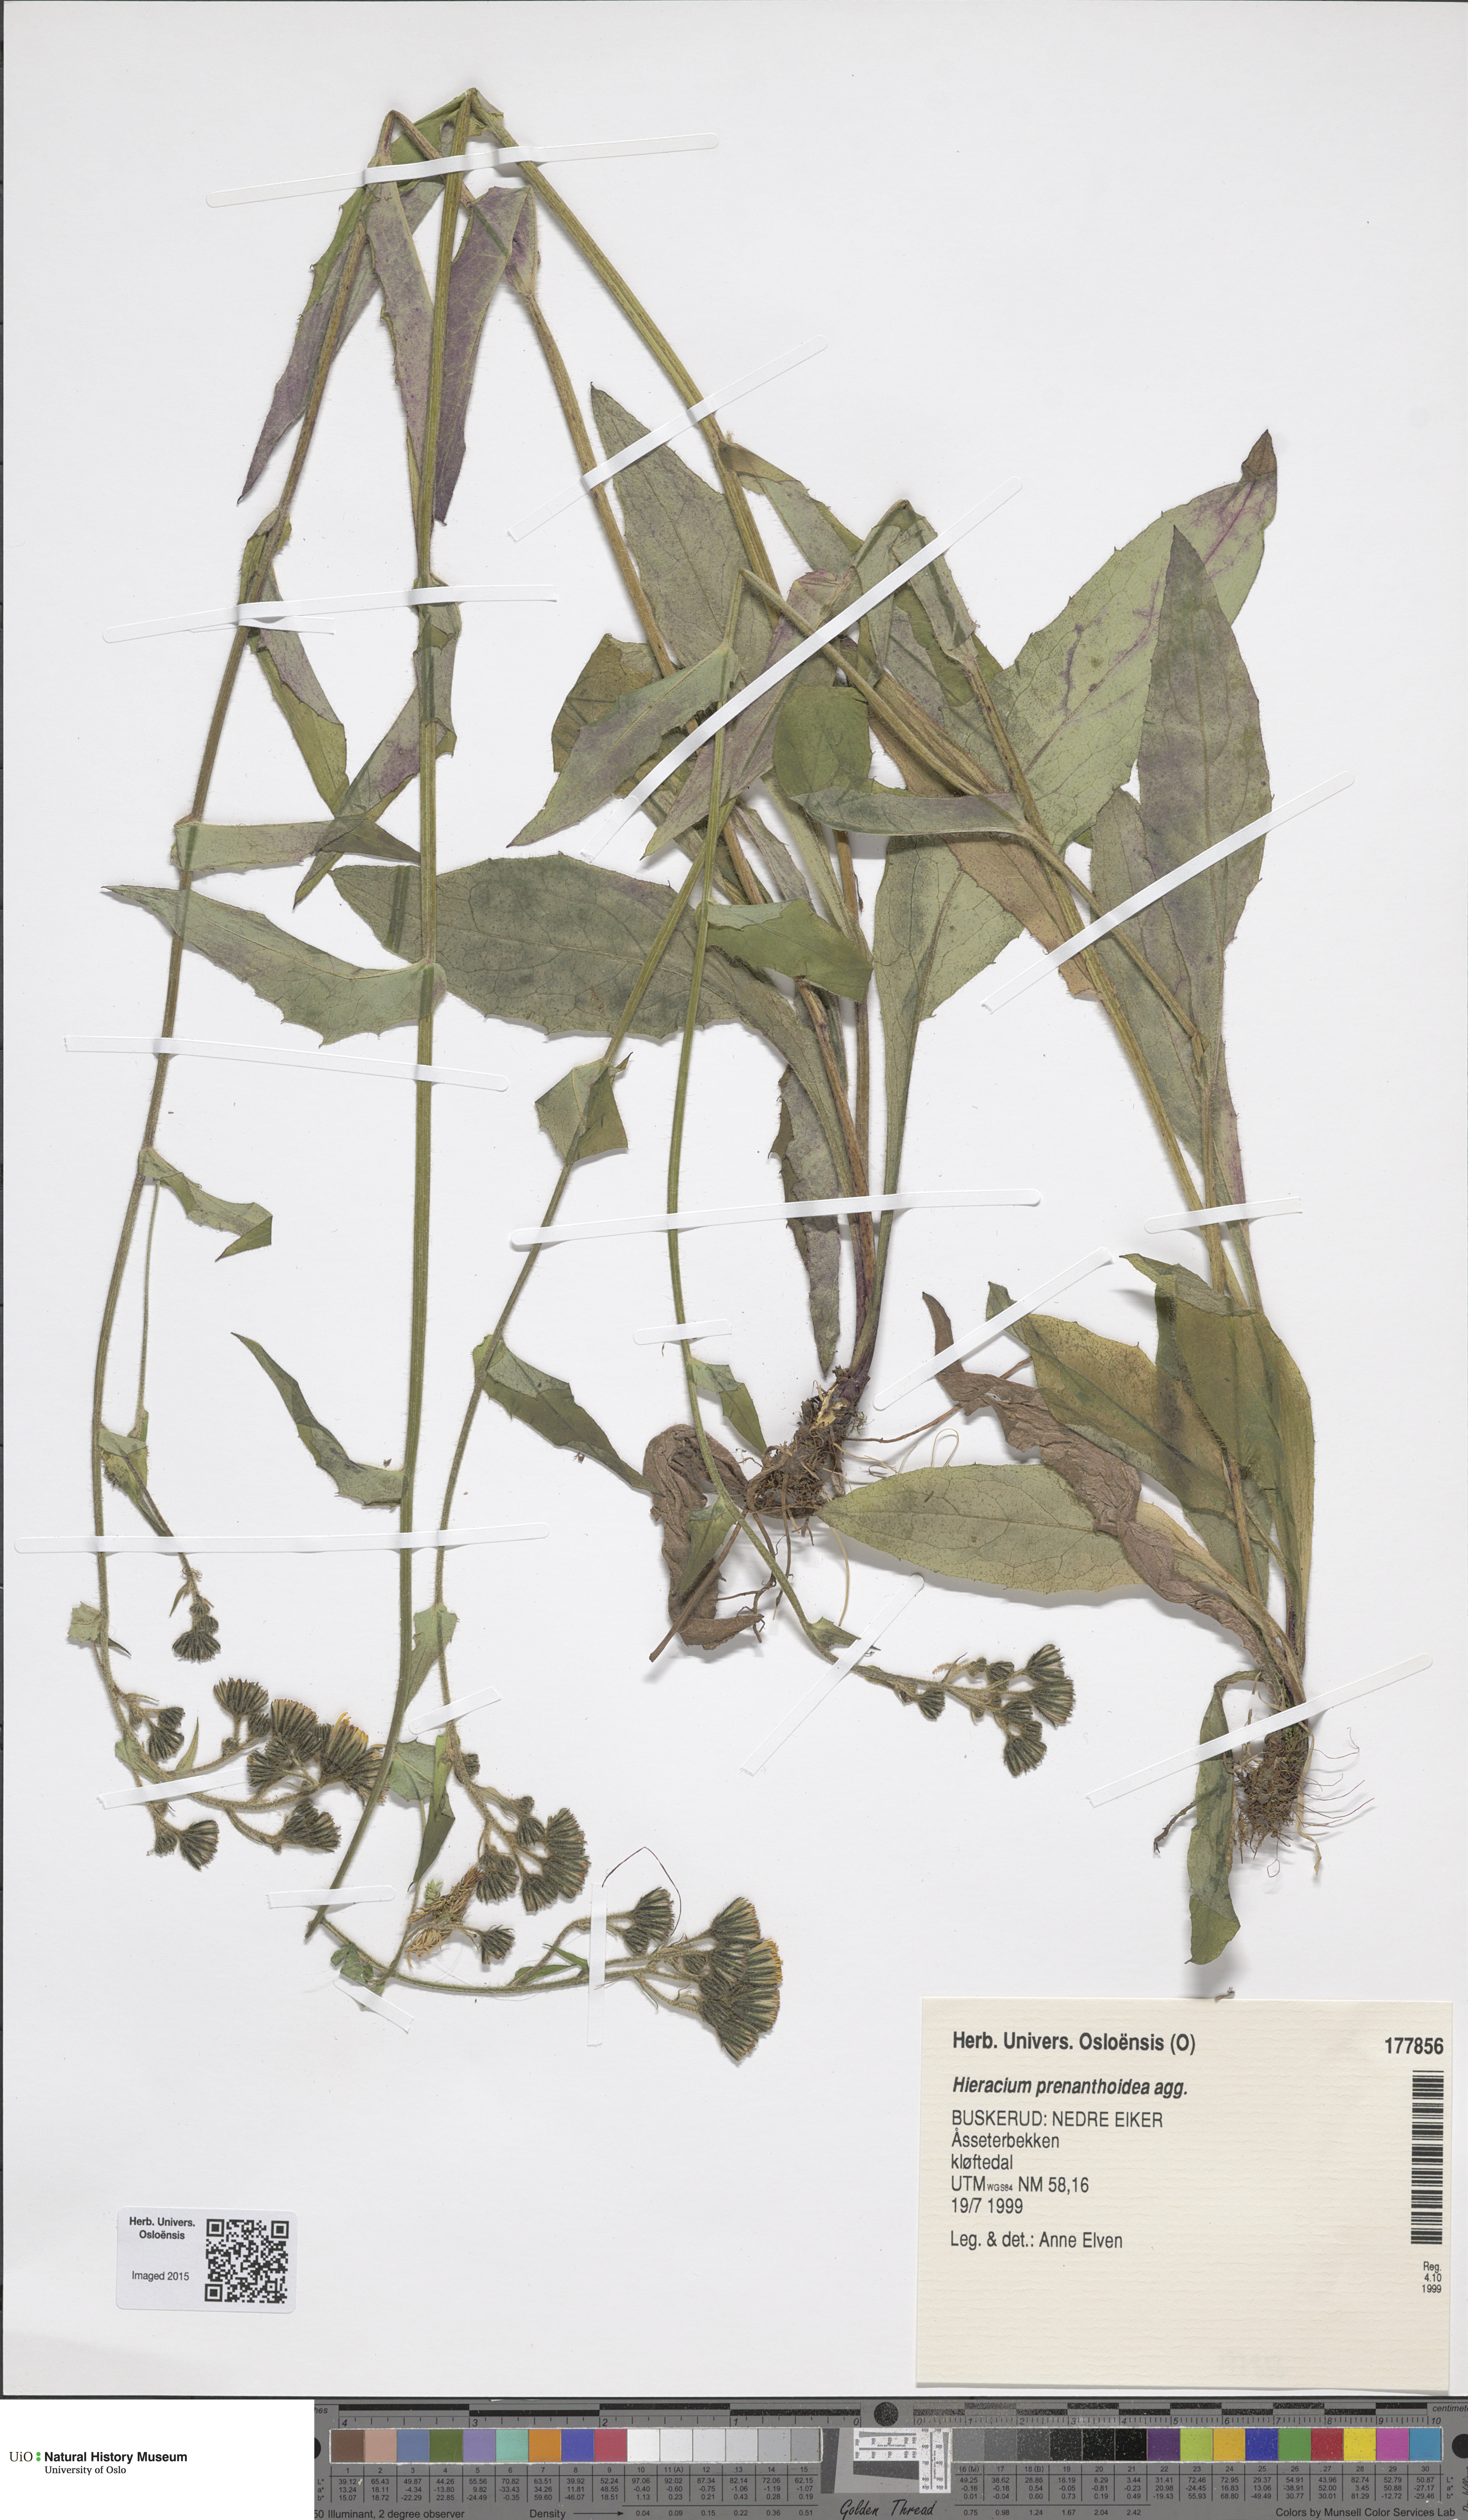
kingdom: Plantae
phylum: Tracheophyta
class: Magnoliopsida
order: Asterales
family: Asteraceae
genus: Hieracium
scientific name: Hieracium prenanthoides
